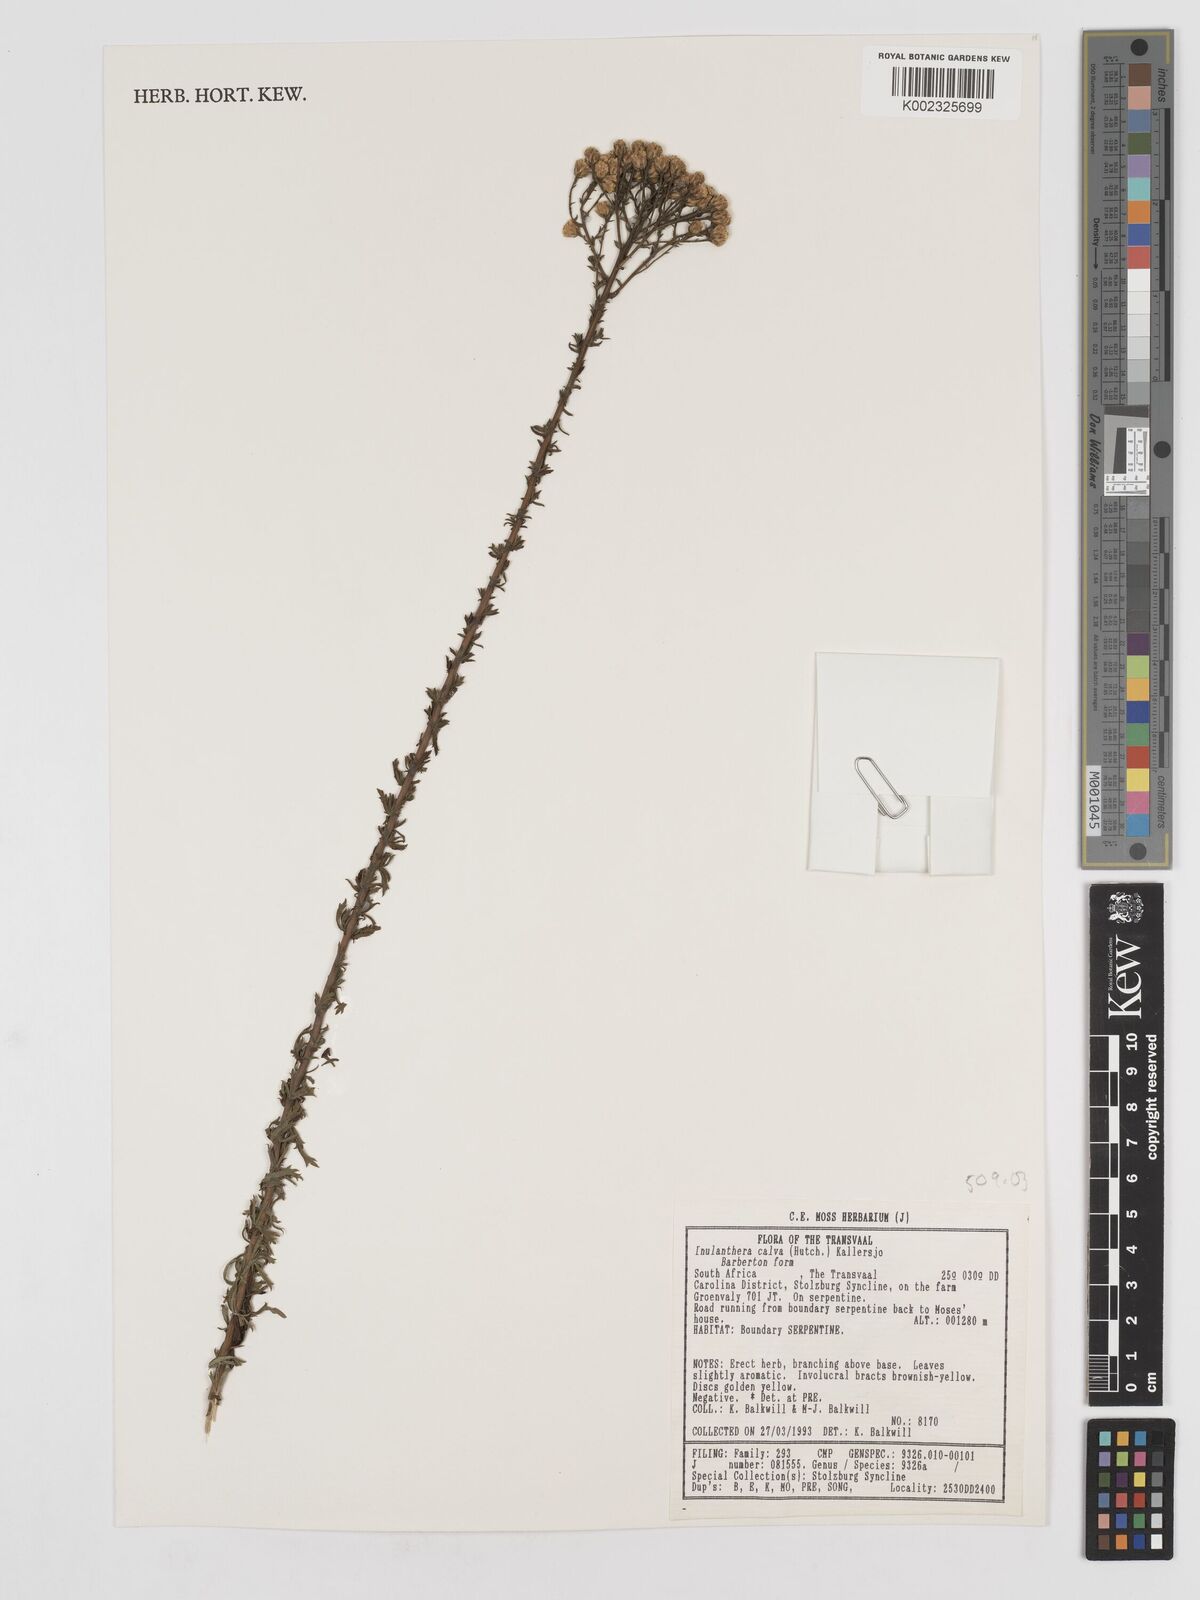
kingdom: Plantae
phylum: Tracheophyta
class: Magnoliopsida
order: Asterales
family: Asteraceae
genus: Inulanthera
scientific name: Inulanthera dregeana
